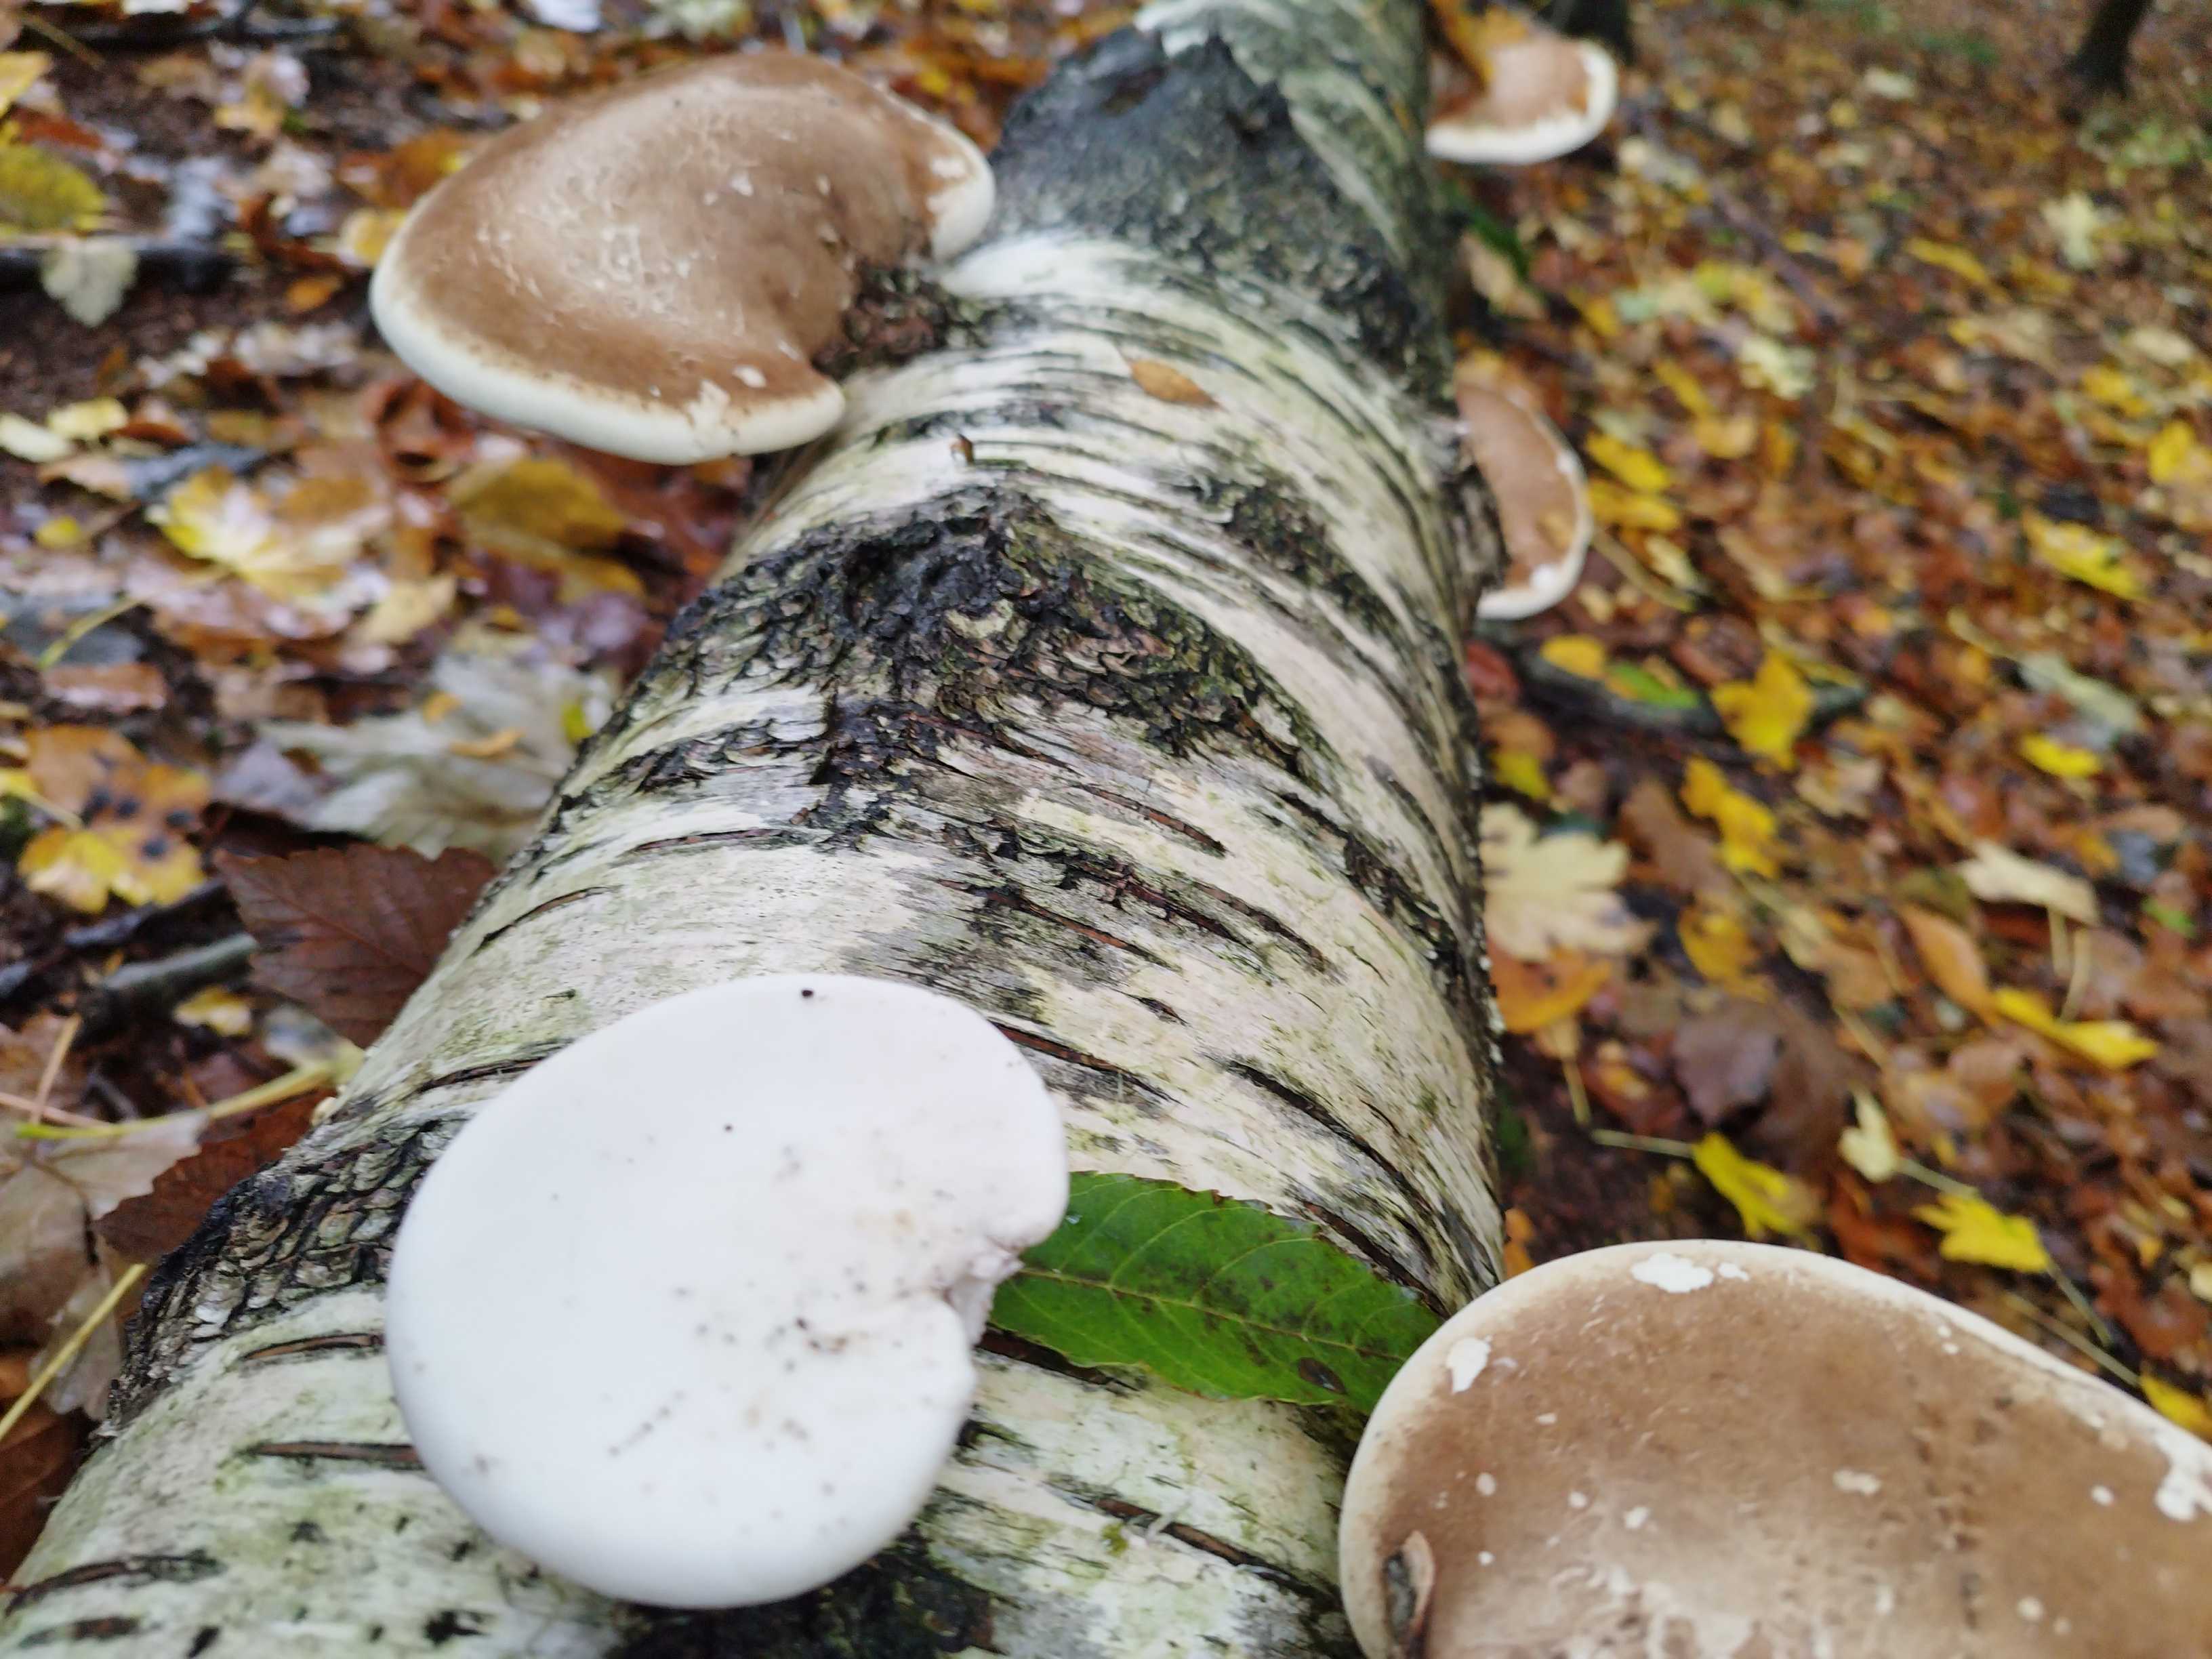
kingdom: Fungi
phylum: Basidiomycota
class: Agaricomycetes
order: Polyporales
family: Fomitopsidaceae
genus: Fomitopsis
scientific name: Fomitopsis betulina
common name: birkeporesvamp
